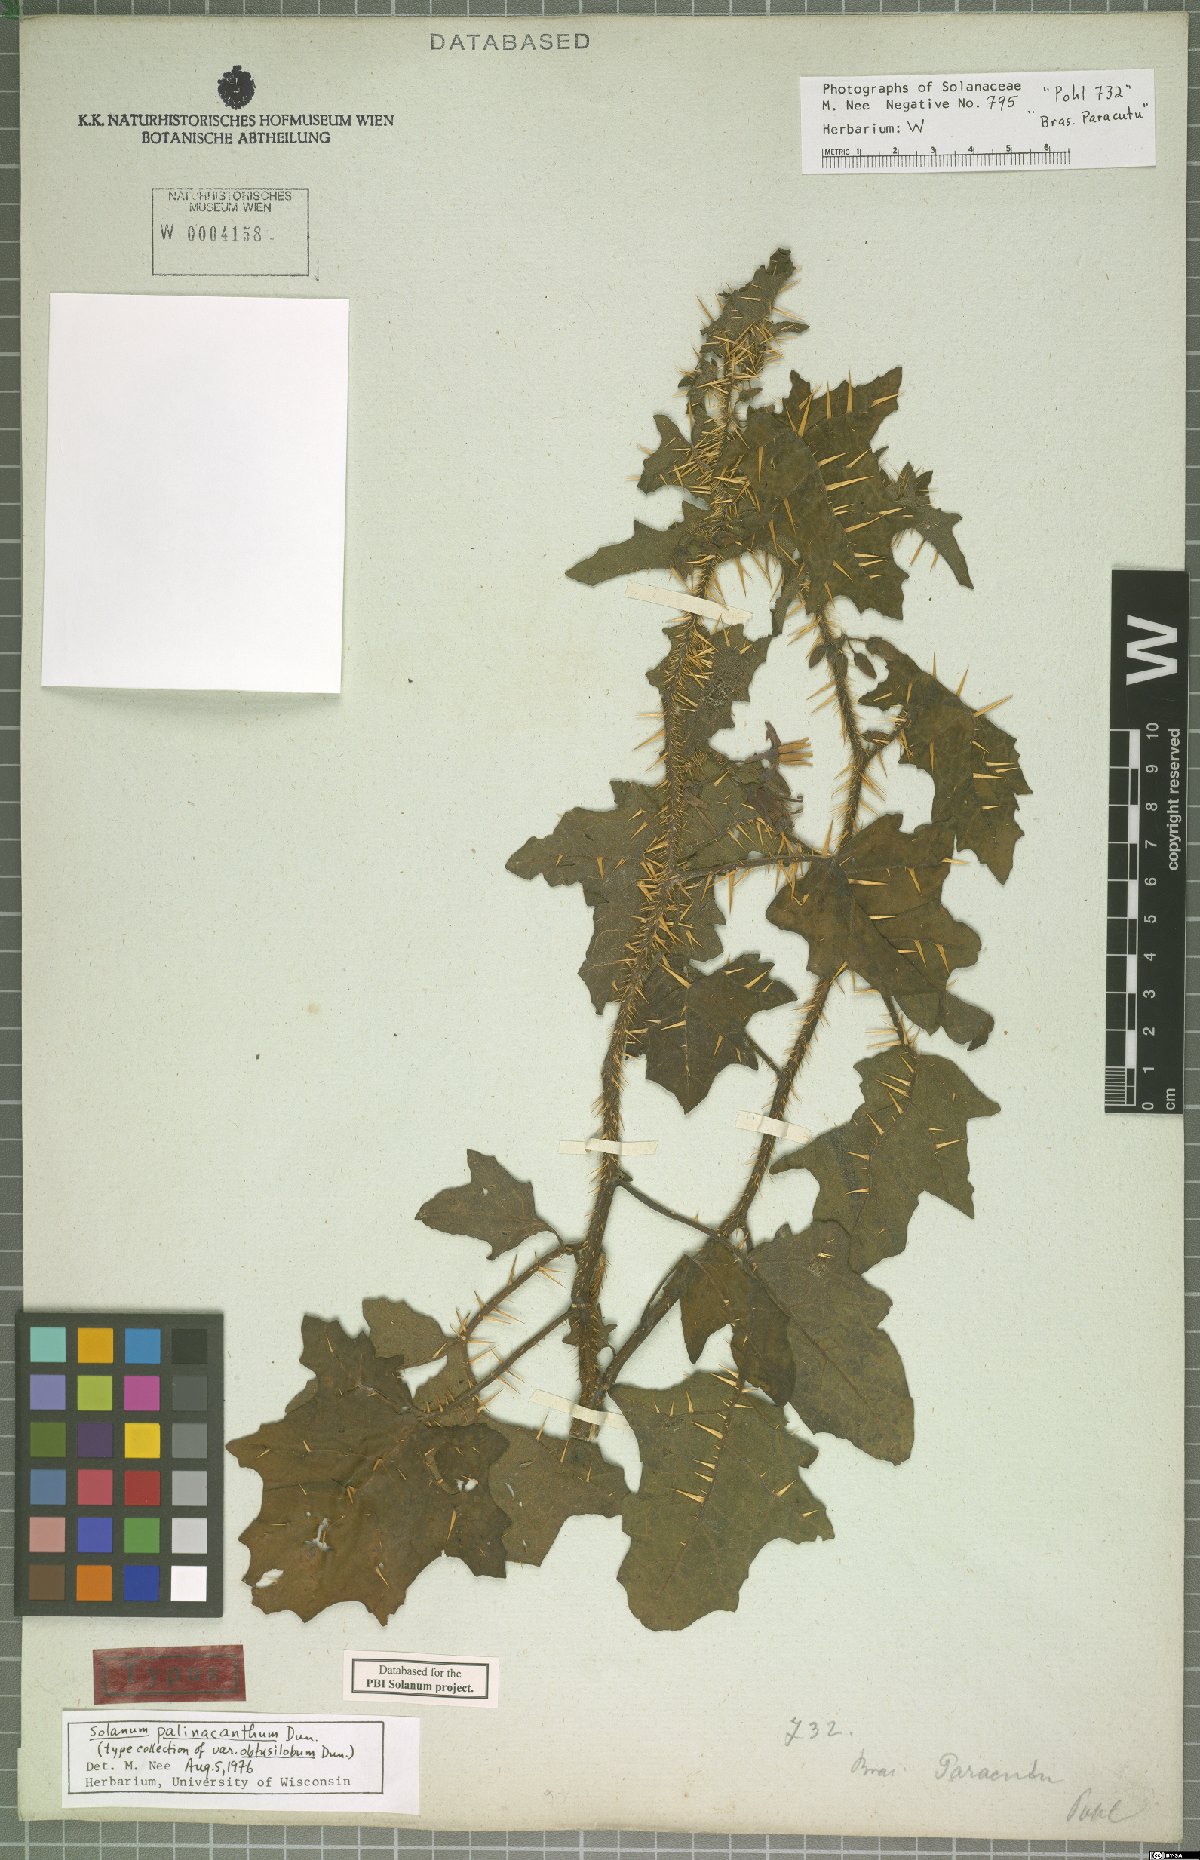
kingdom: Plantae
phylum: Tracheophyta
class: Magnoliopsida
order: Solanales
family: Solanaceae
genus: Solanum
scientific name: Solanum palinacanthum
